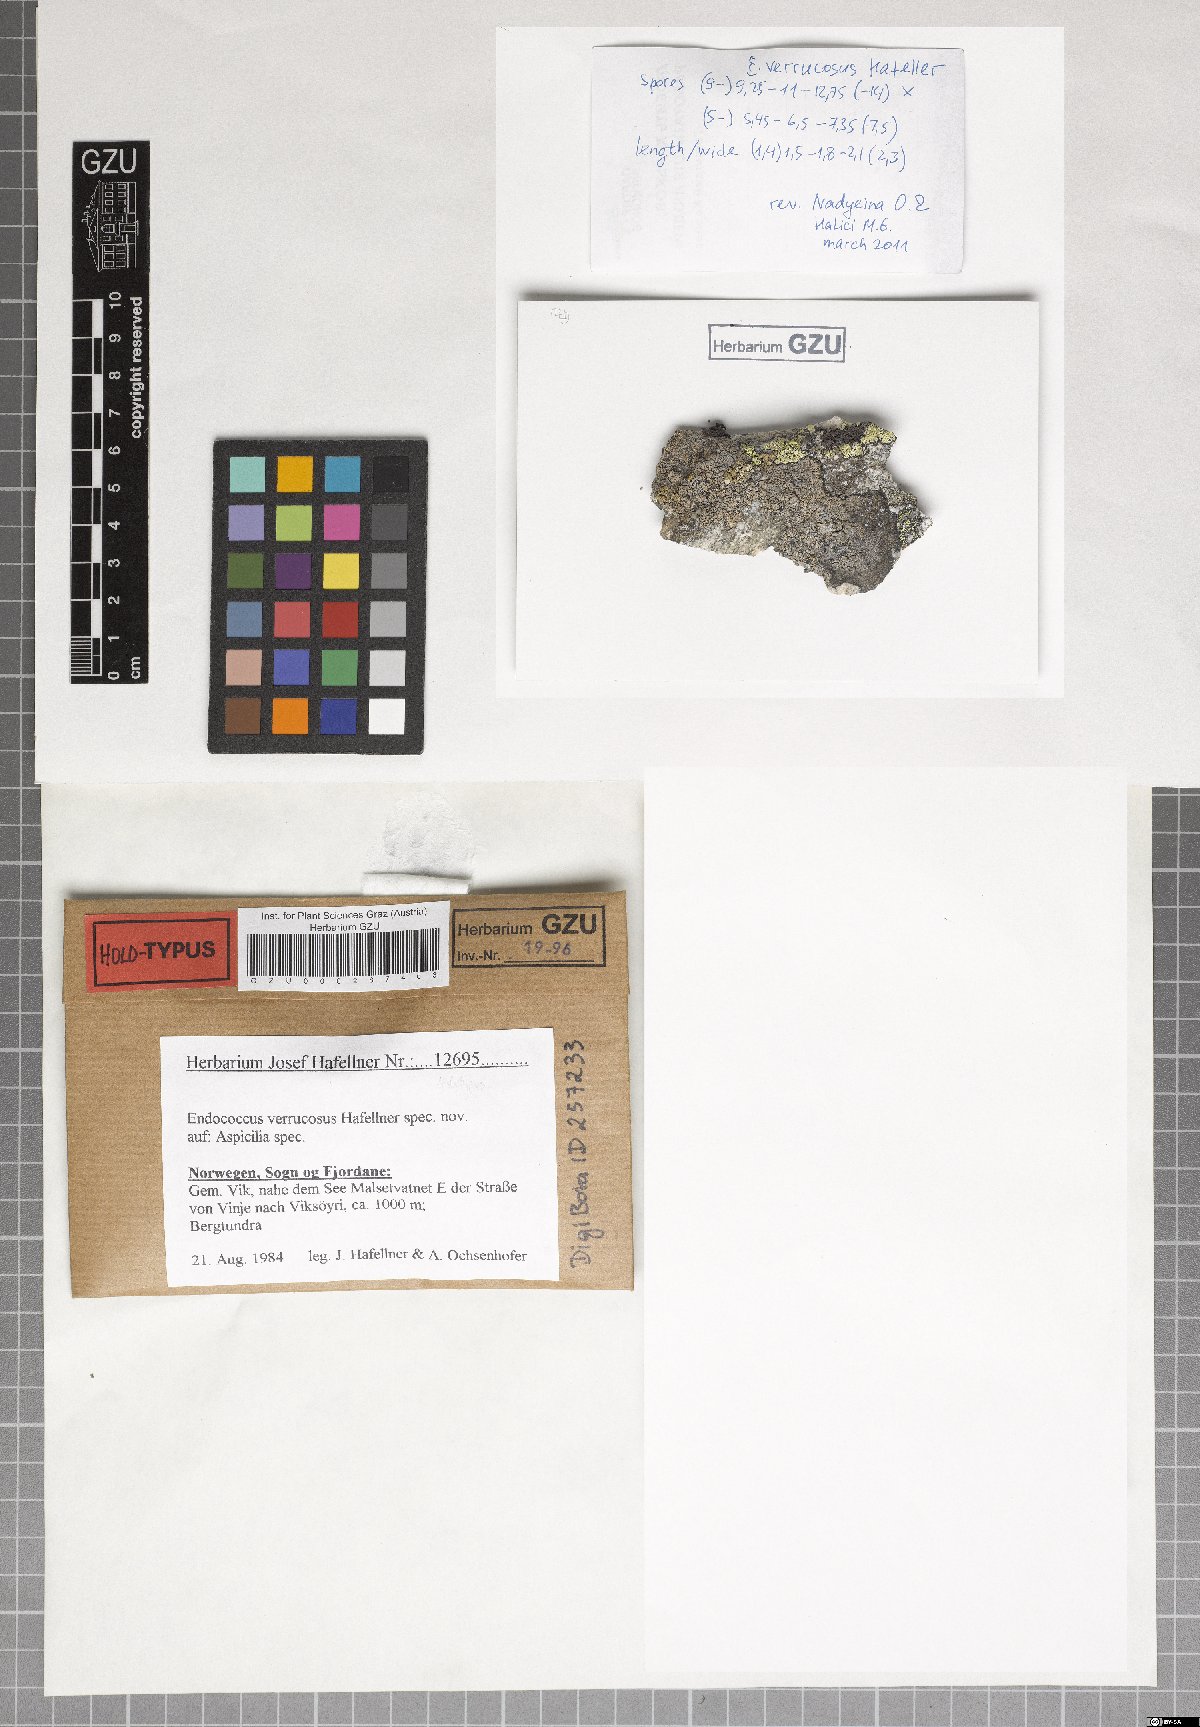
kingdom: Fungi
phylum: Ascomycota
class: Dothideomycetes
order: Dothideales
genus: Endococcus
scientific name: Endococcus verrucosus
